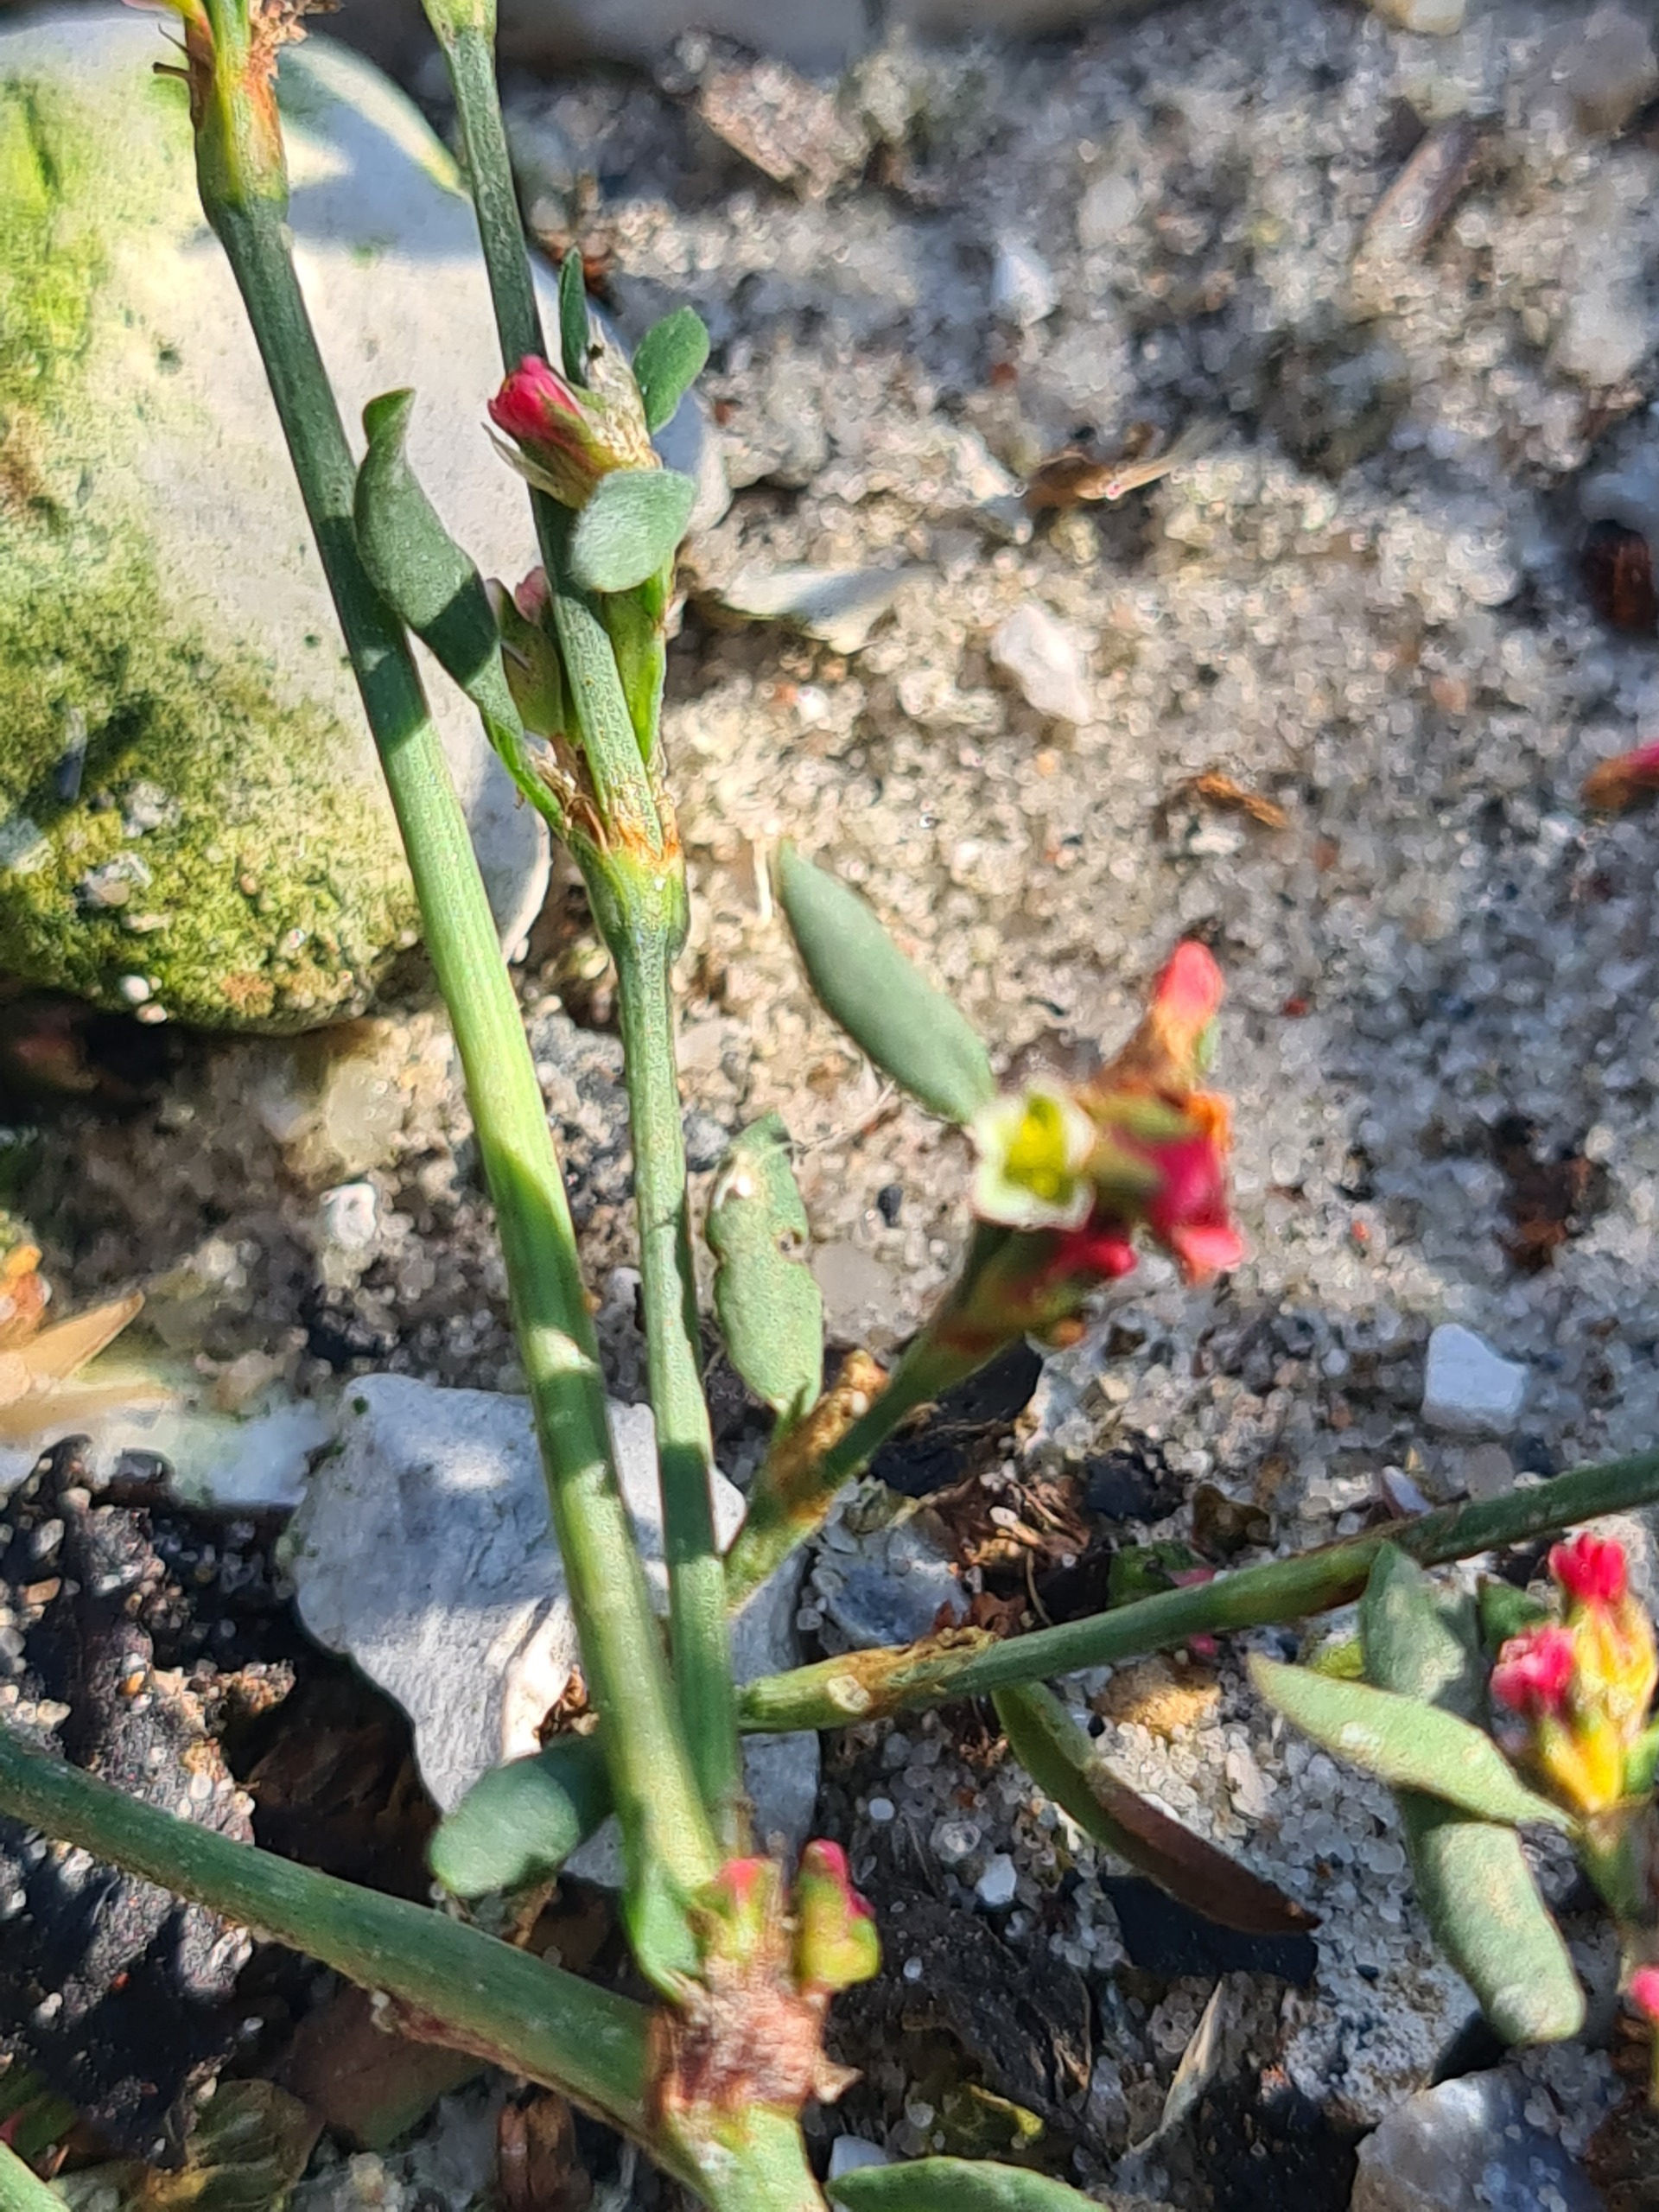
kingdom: Plantae
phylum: Tracheophyta
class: Magnoliopsida
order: Caryophyllales
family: Polygonaceae
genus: Polygonum
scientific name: Polygonum aviculare
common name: Vej-pileurt
